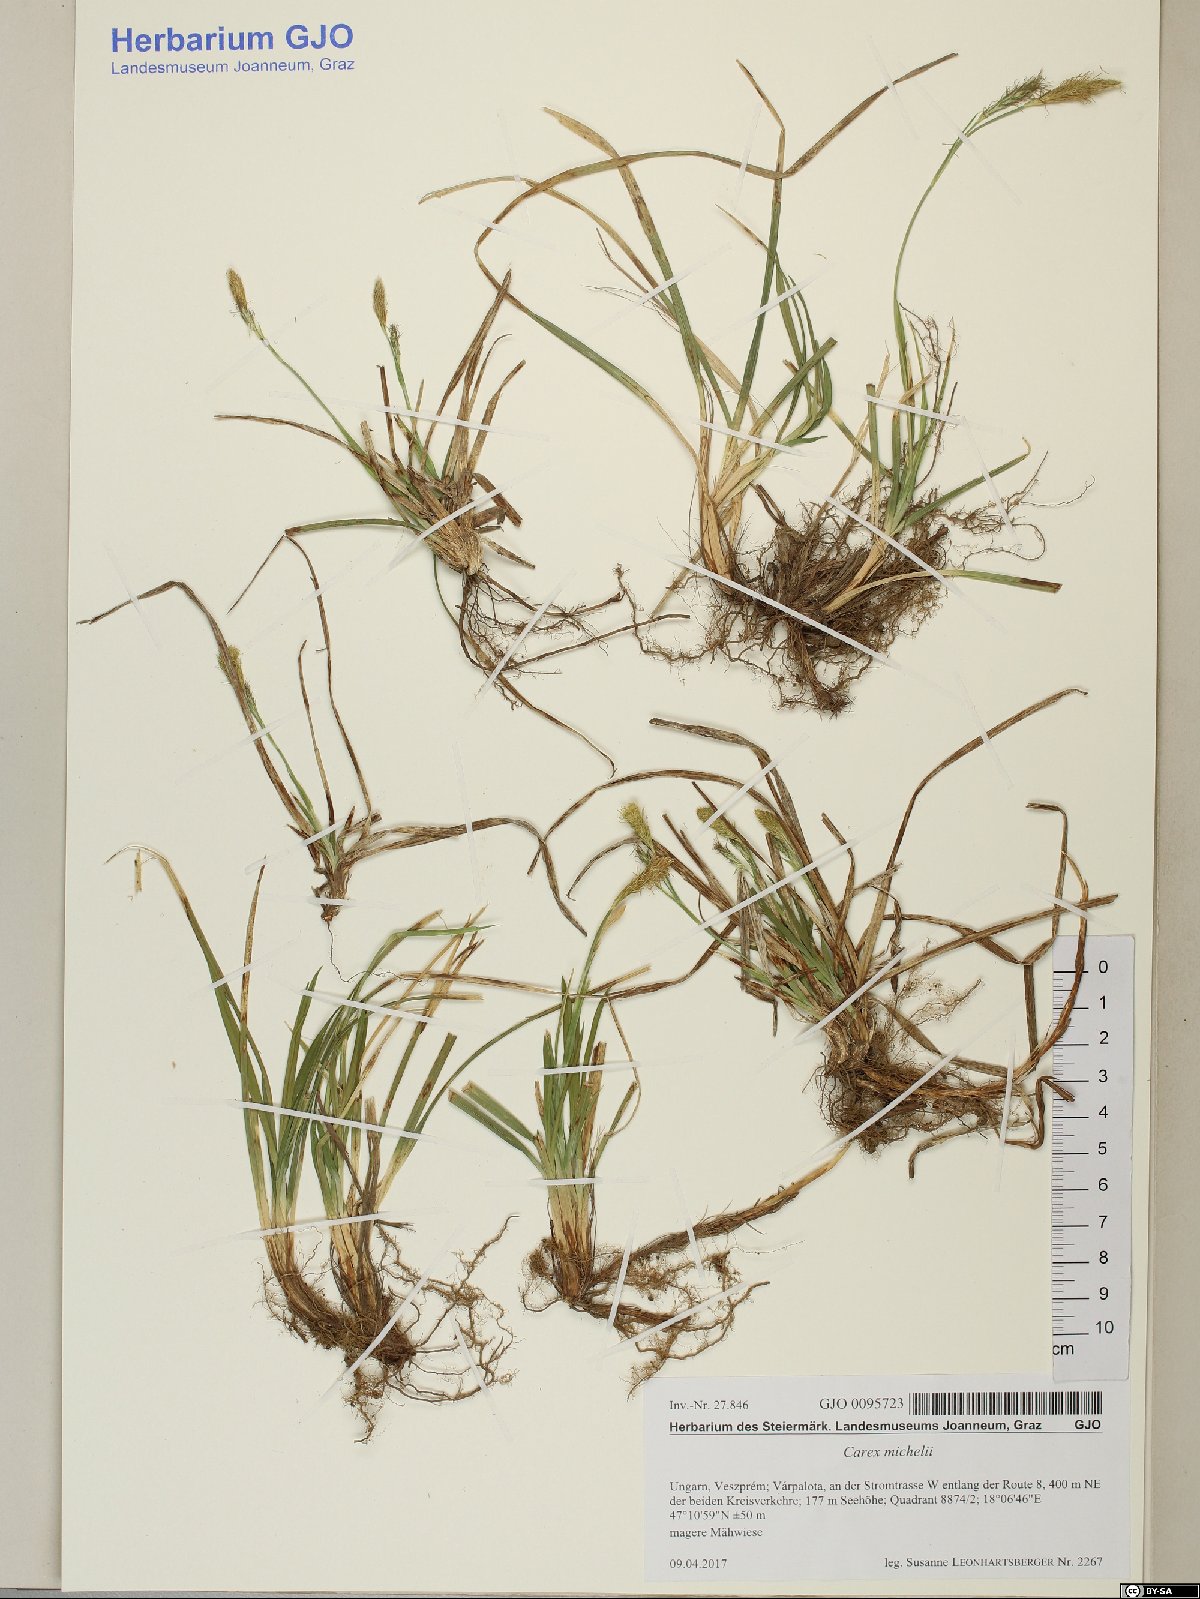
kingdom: Plantae
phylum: Tracheophyta
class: Liliopsida
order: Poales
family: Cyperaceae
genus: Carex
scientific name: Carex michelii
